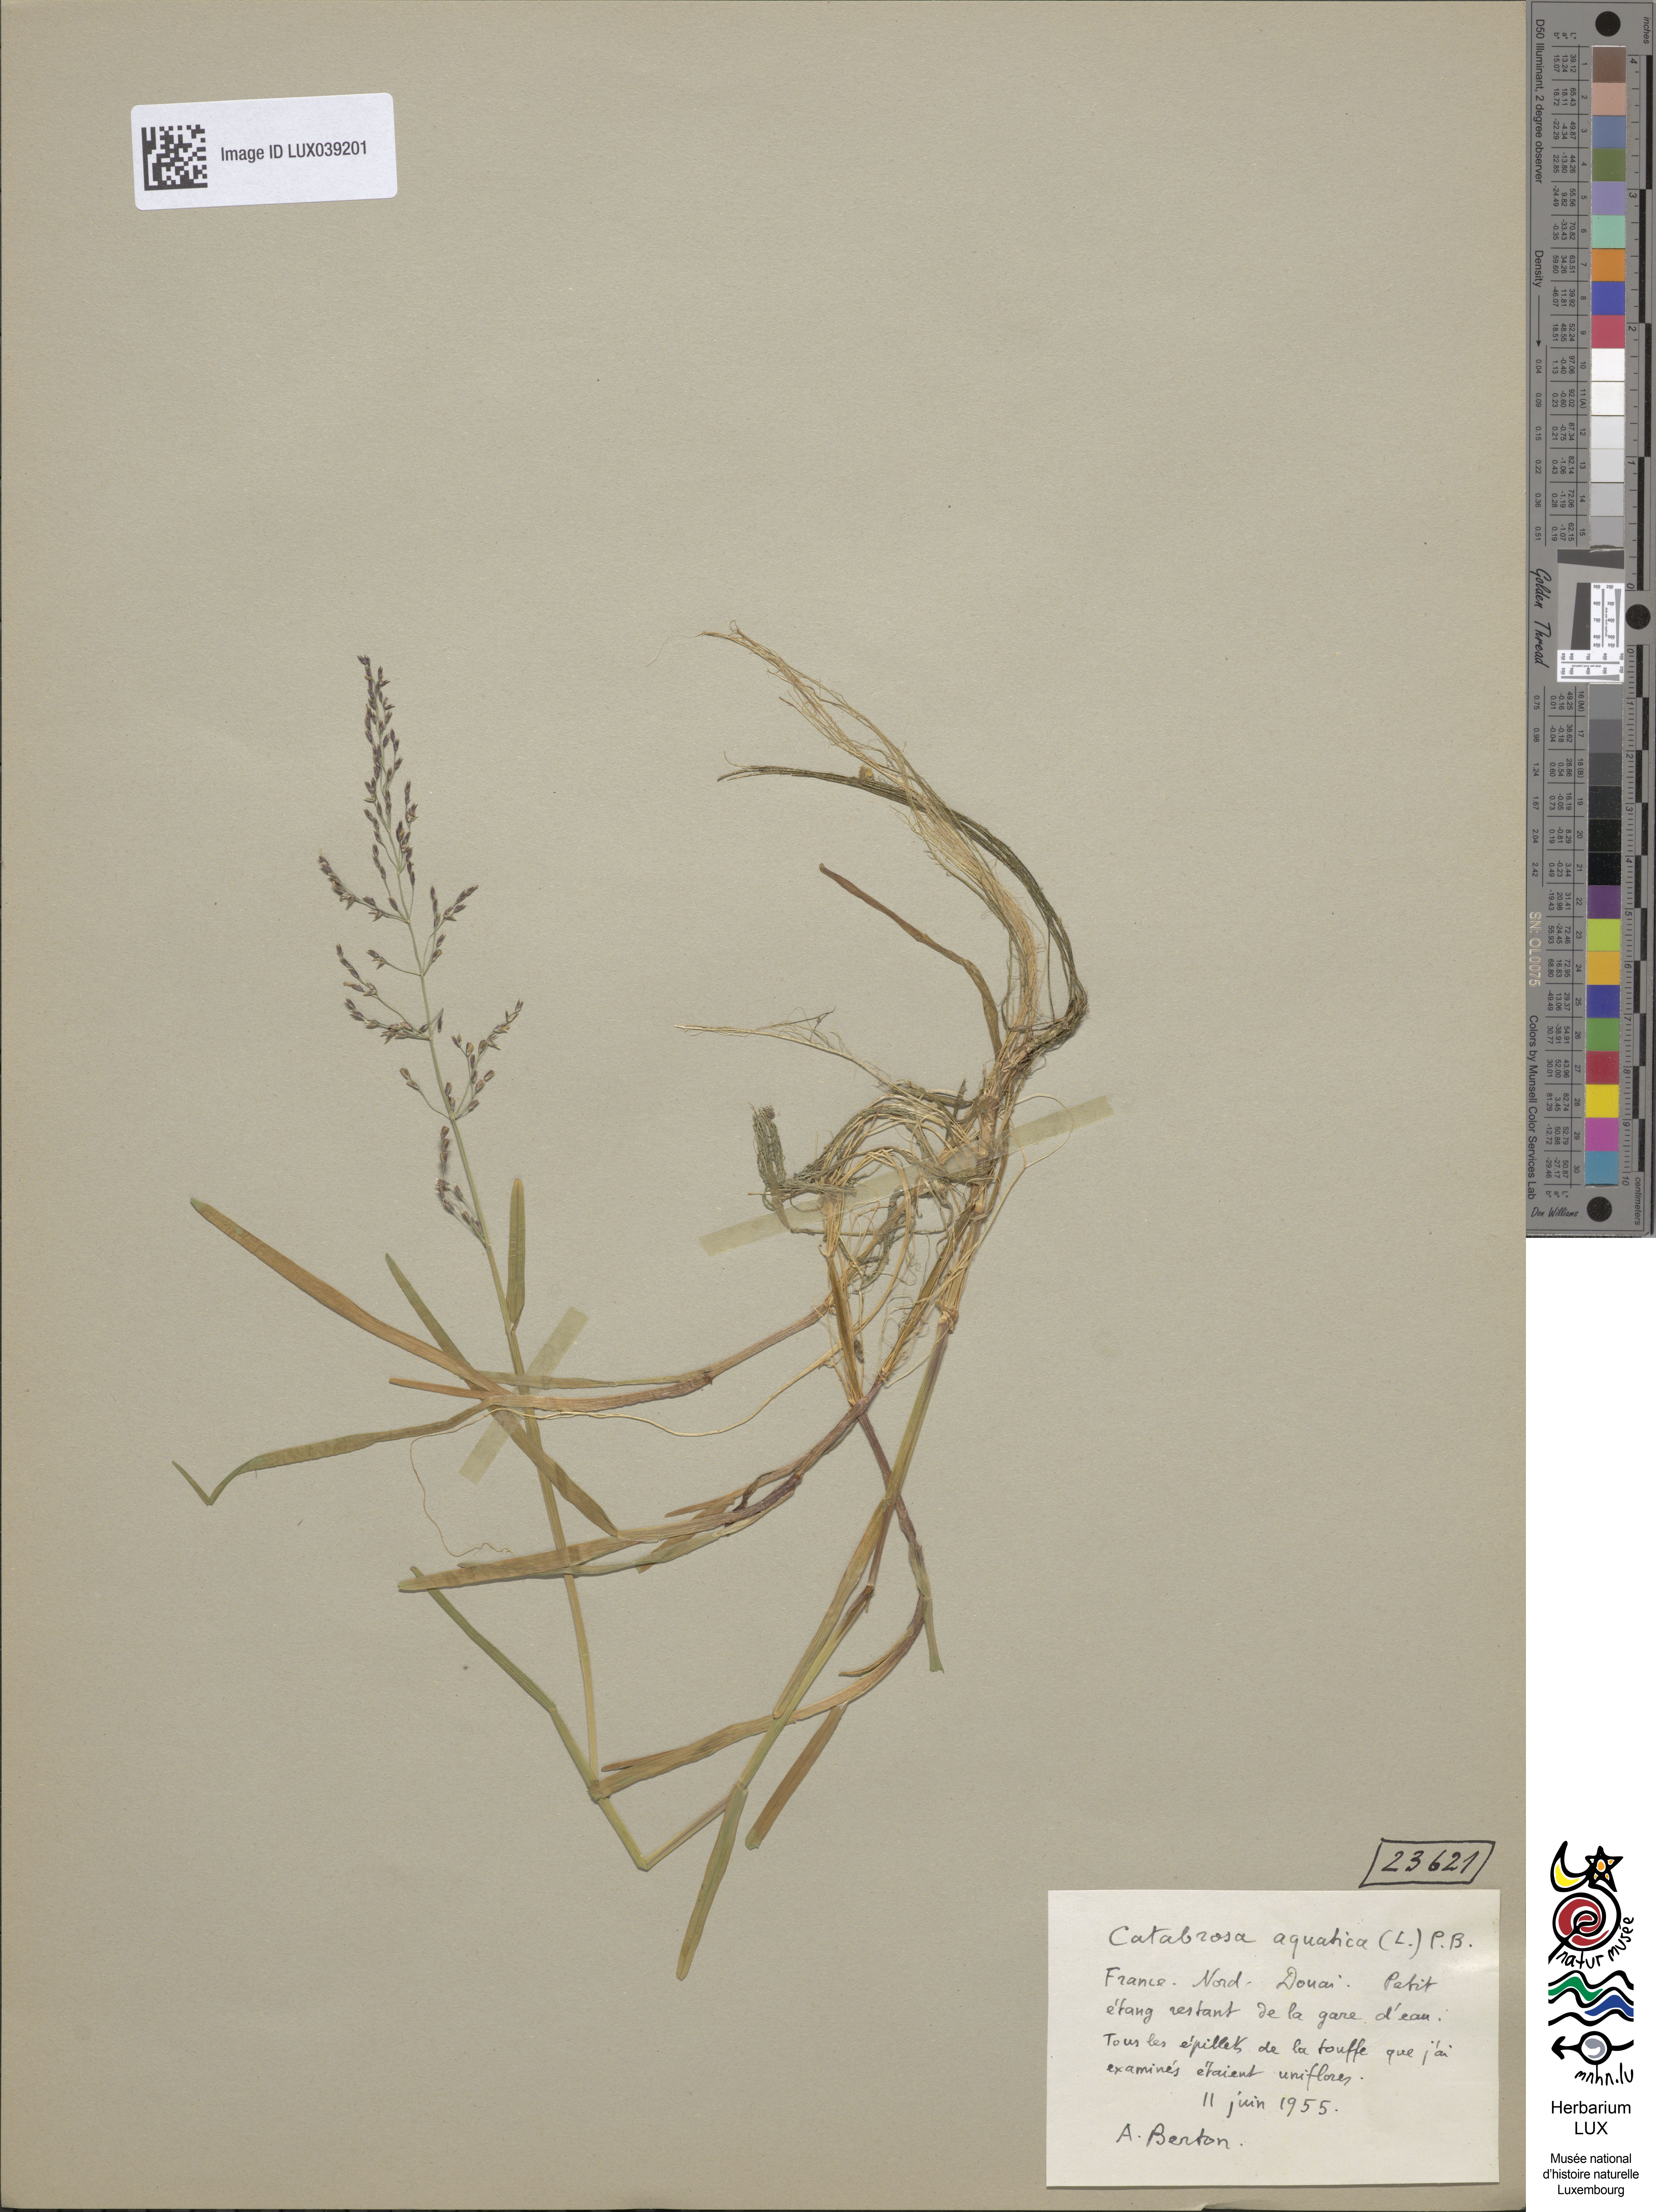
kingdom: Plantae
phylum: Tracheophyta
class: Liliopsida
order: Poales
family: Poaceae
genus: Catabrosa
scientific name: Catabrosa aquatica
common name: Whorl-grass
